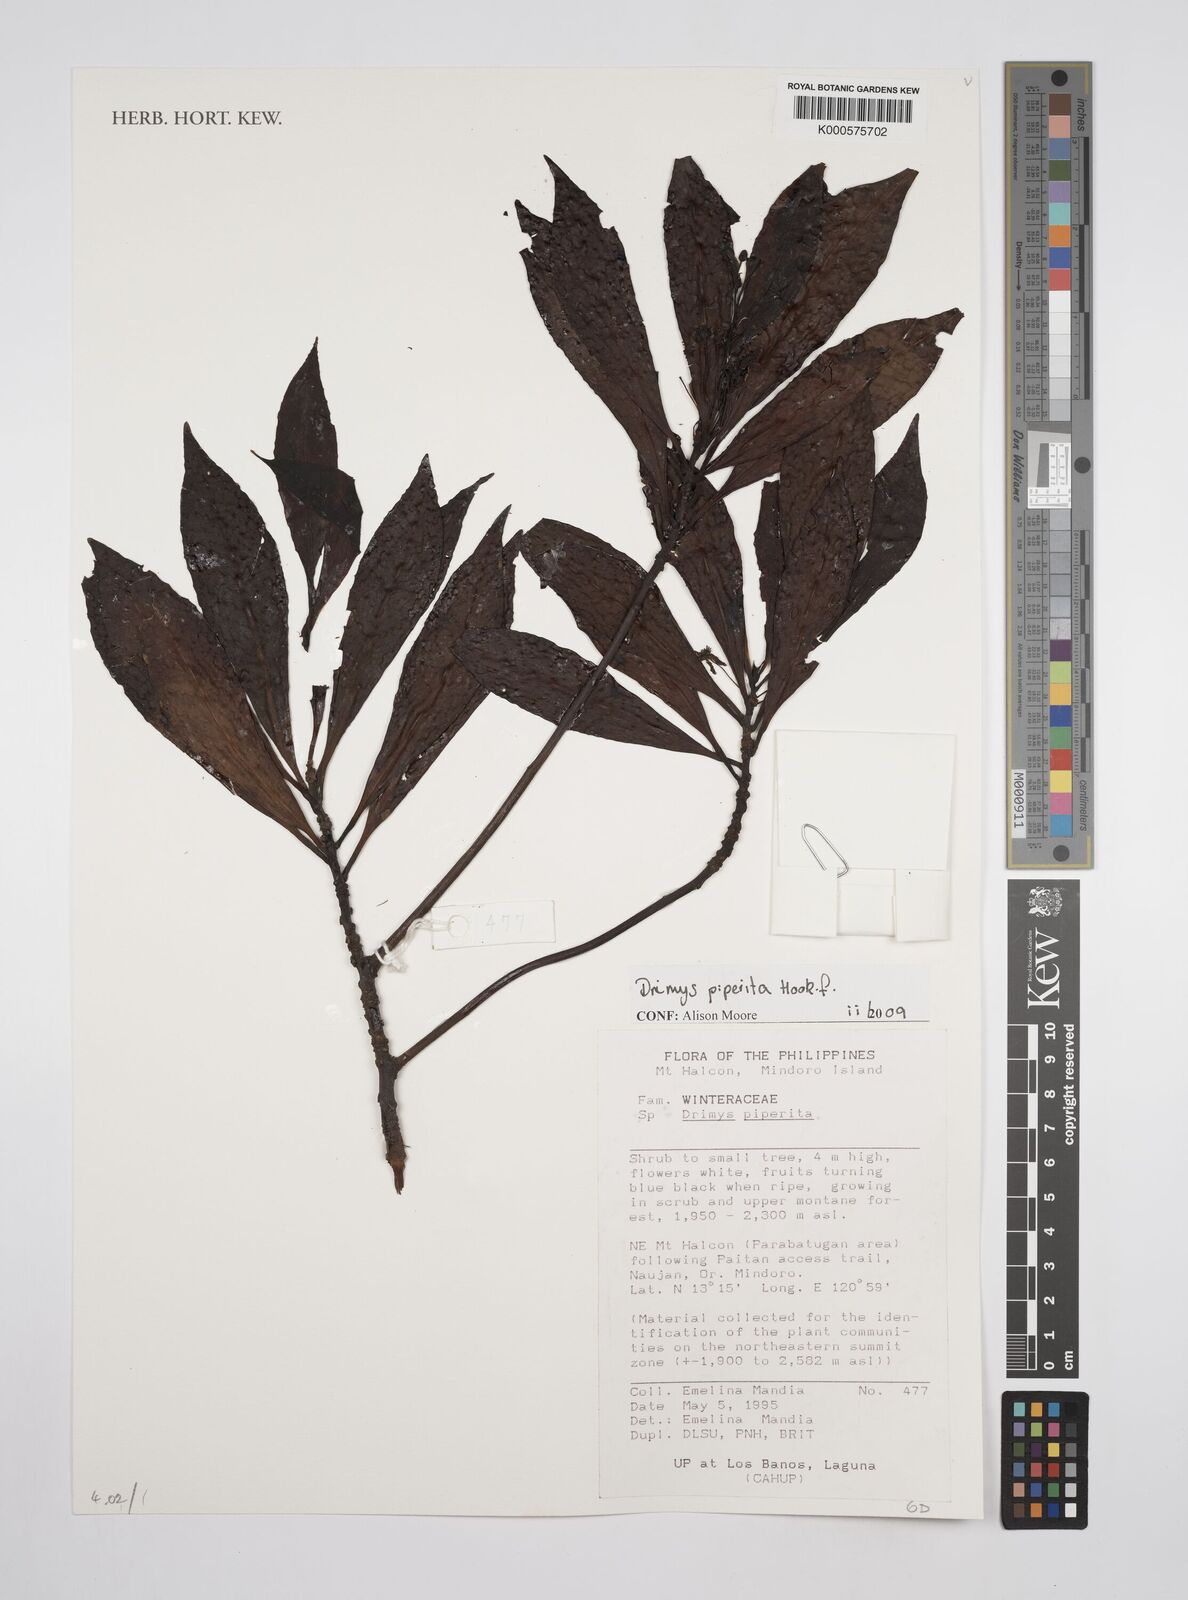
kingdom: Plantae
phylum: Tracheophyta
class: Magnoliopsida
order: Canellales
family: Winteraceae
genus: Drimys
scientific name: Drimys piperita
